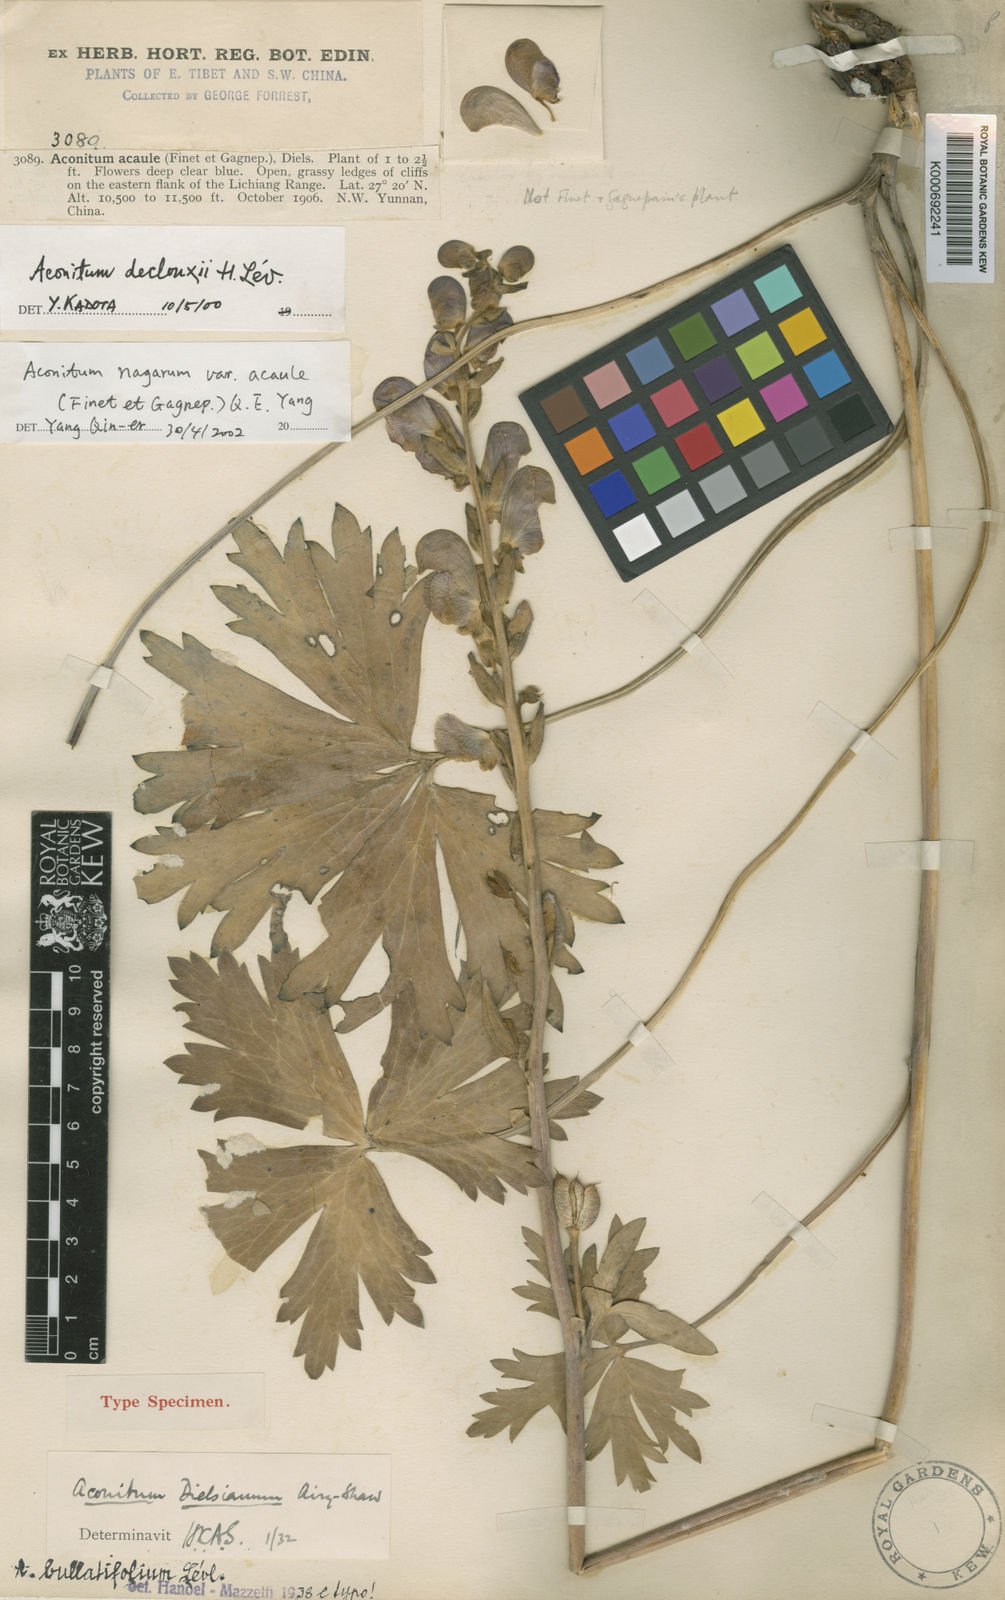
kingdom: Plantae
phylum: Tracheophyta
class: Magnoliopsida
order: Ranunculales
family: Ranunculaceae
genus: Aconitum
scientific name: Aconitum
